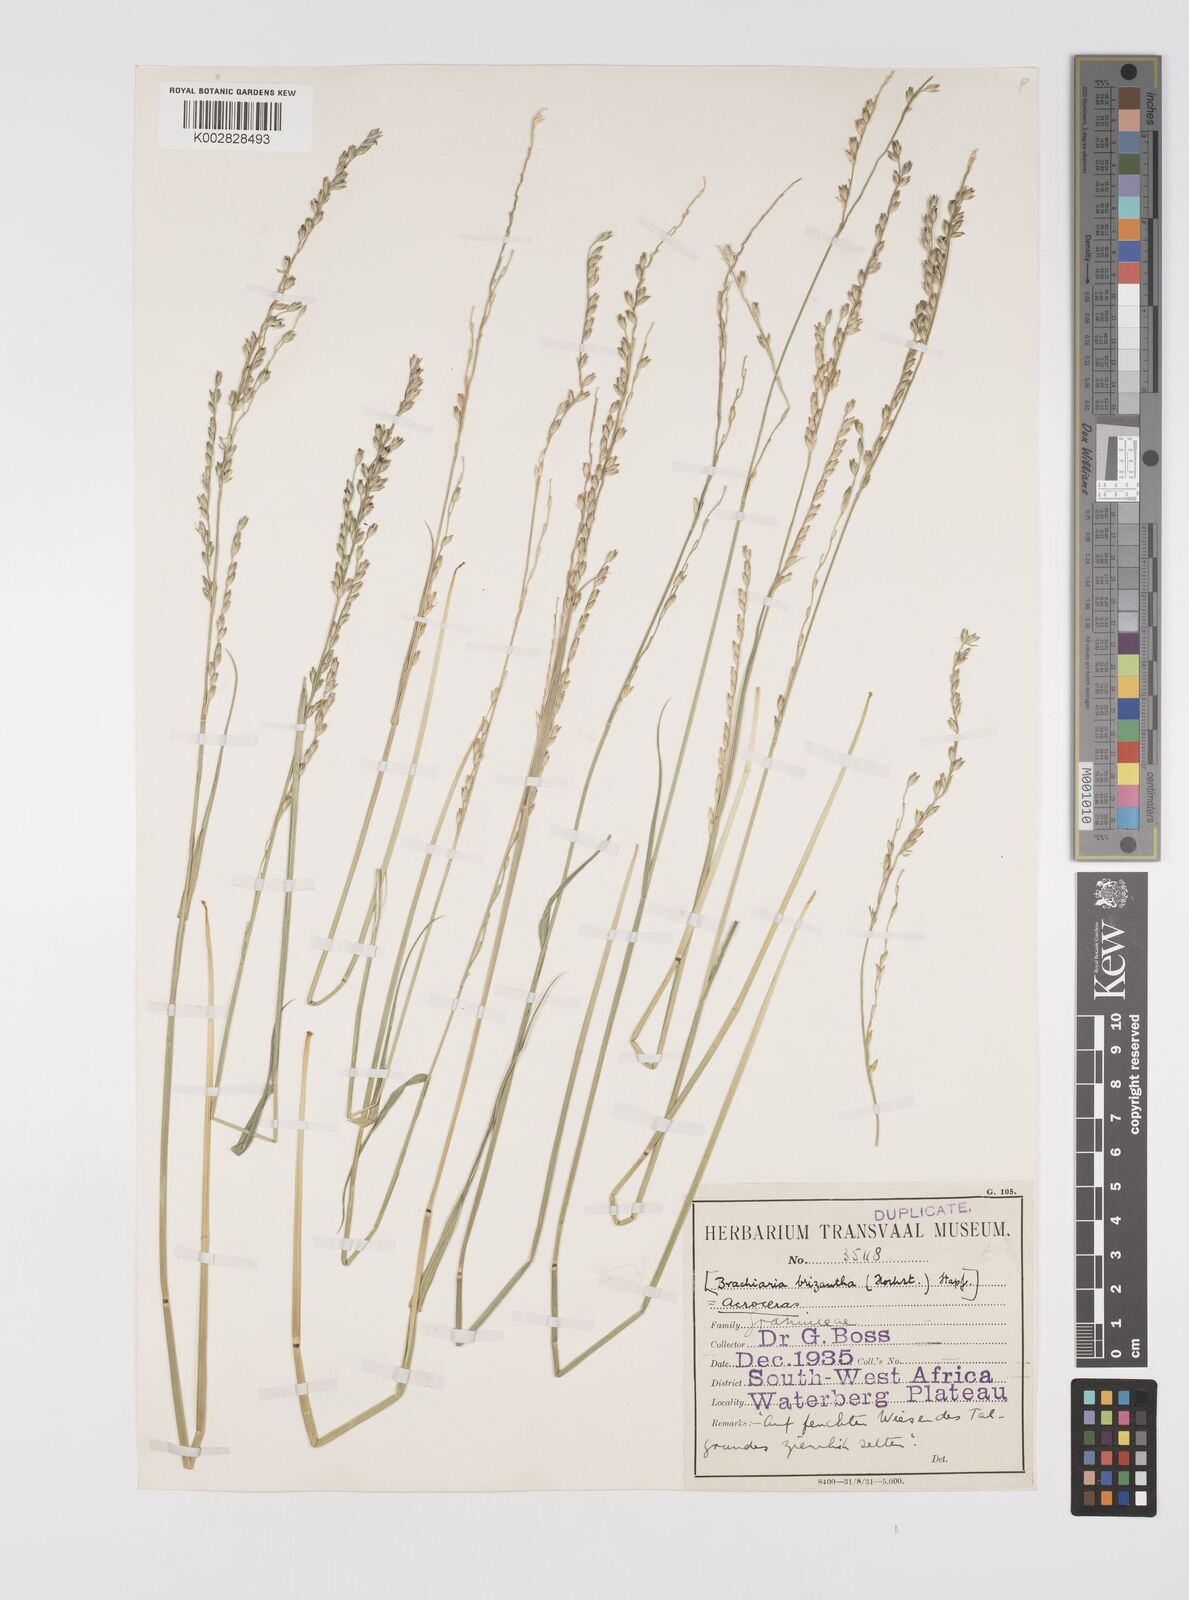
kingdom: Plantae
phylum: Tracheophyta
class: Liliopsida
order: Poales
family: Poaceae
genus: Acroceras
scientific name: Acroceras macrum
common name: Nyl grass
